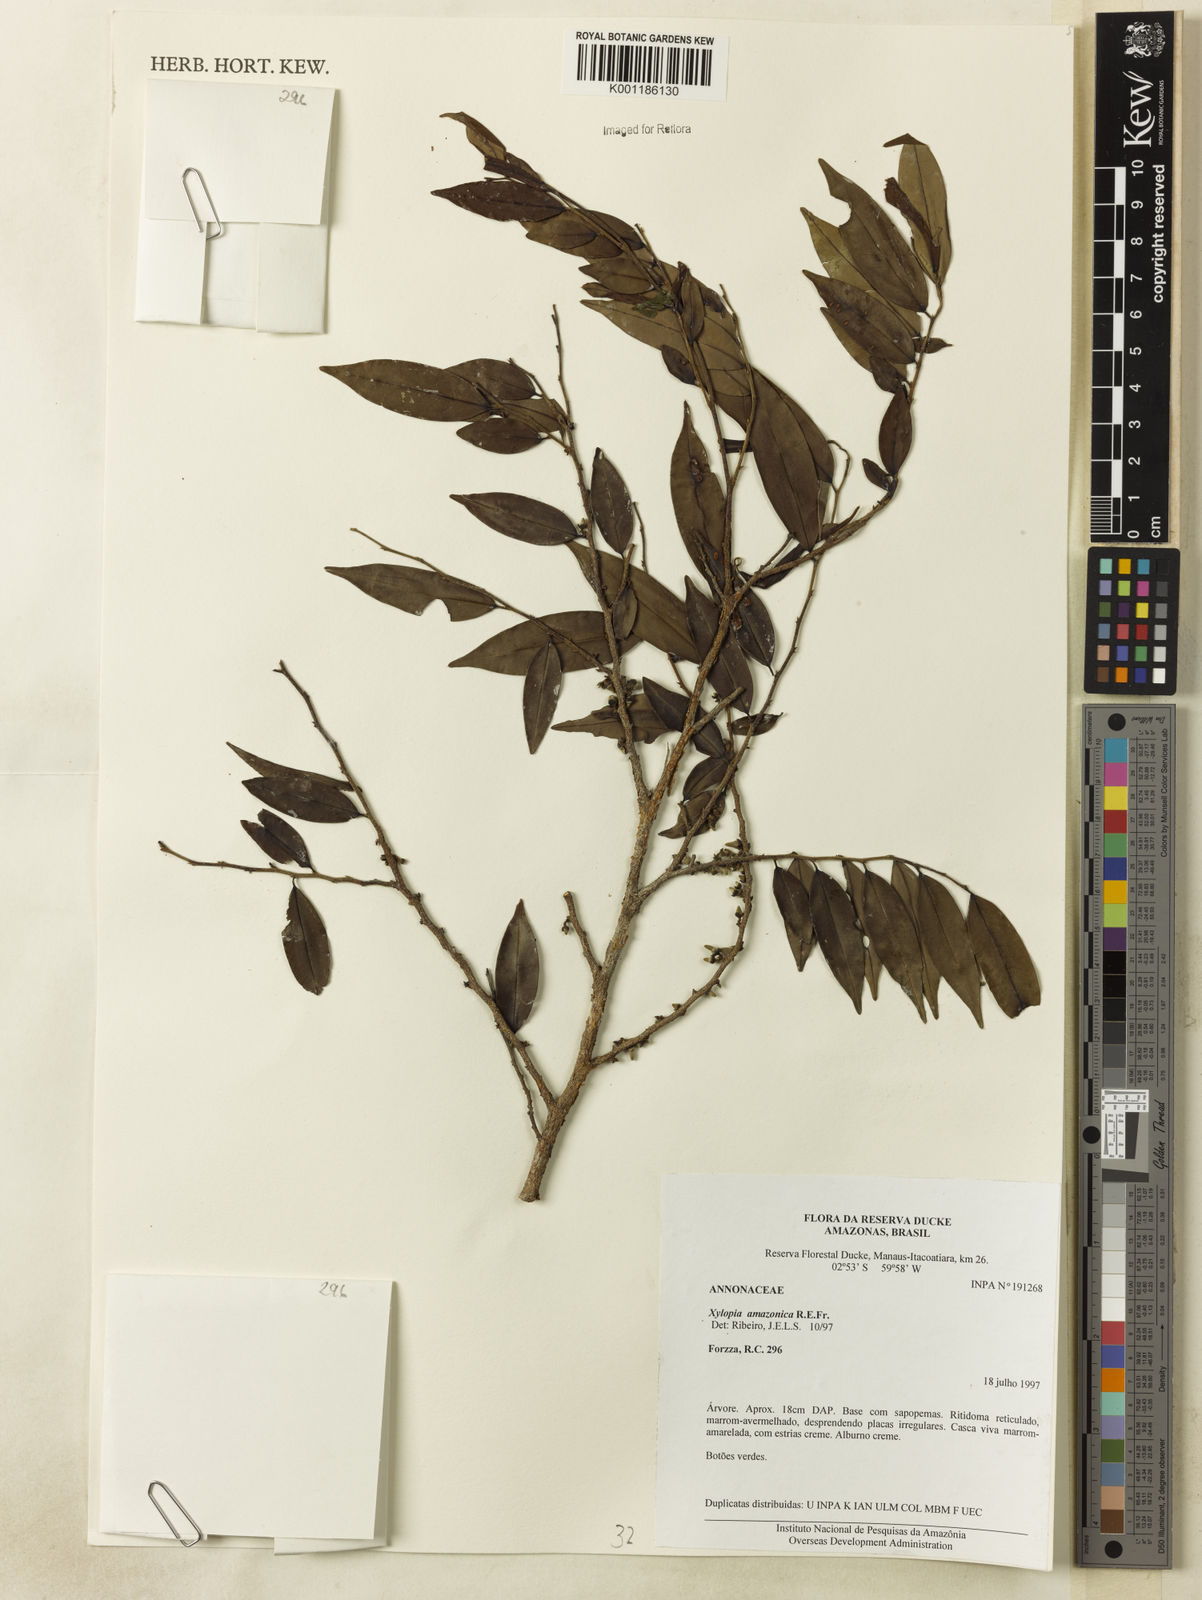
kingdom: Plantae
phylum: Tracheophyta
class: Magnoliopsida
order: Magnoliales
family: Annonaceae
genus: Xylopia
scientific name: Xylopia amazonica
